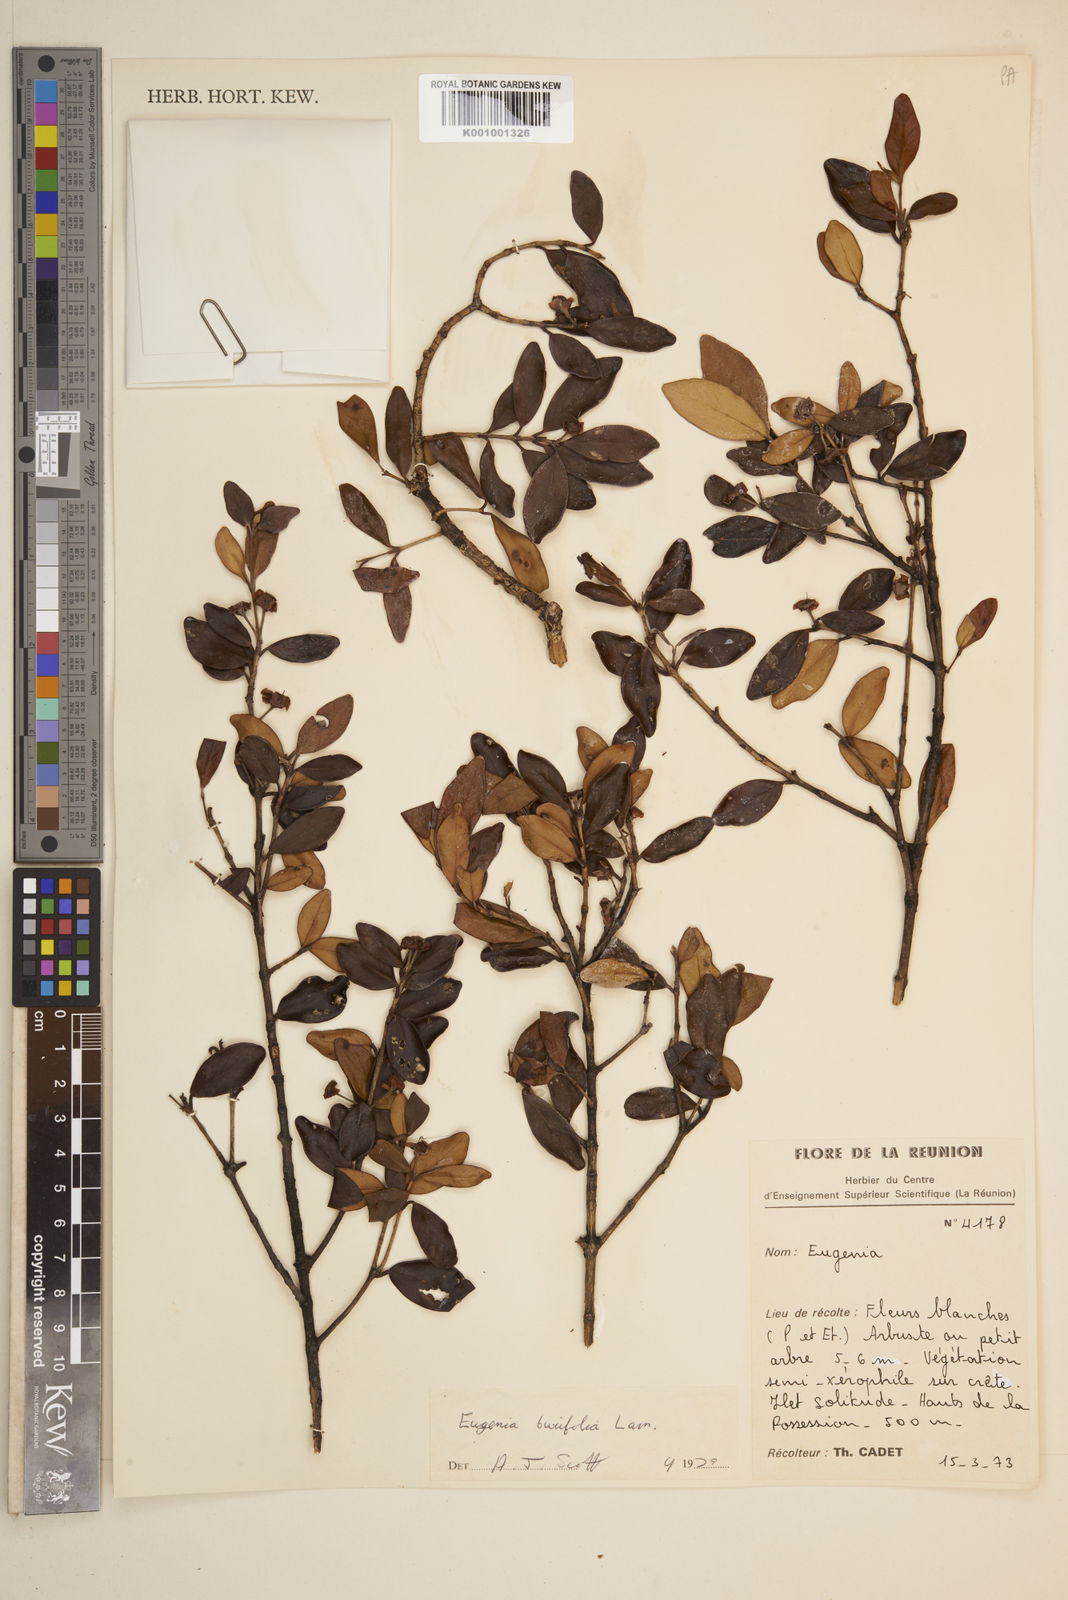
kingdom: Plantae
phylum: Tracheophyta
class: Magnoliopsida
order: Myrtales
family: Myrtaceae
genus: Eugenia
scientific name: Eugenia buxifolia
